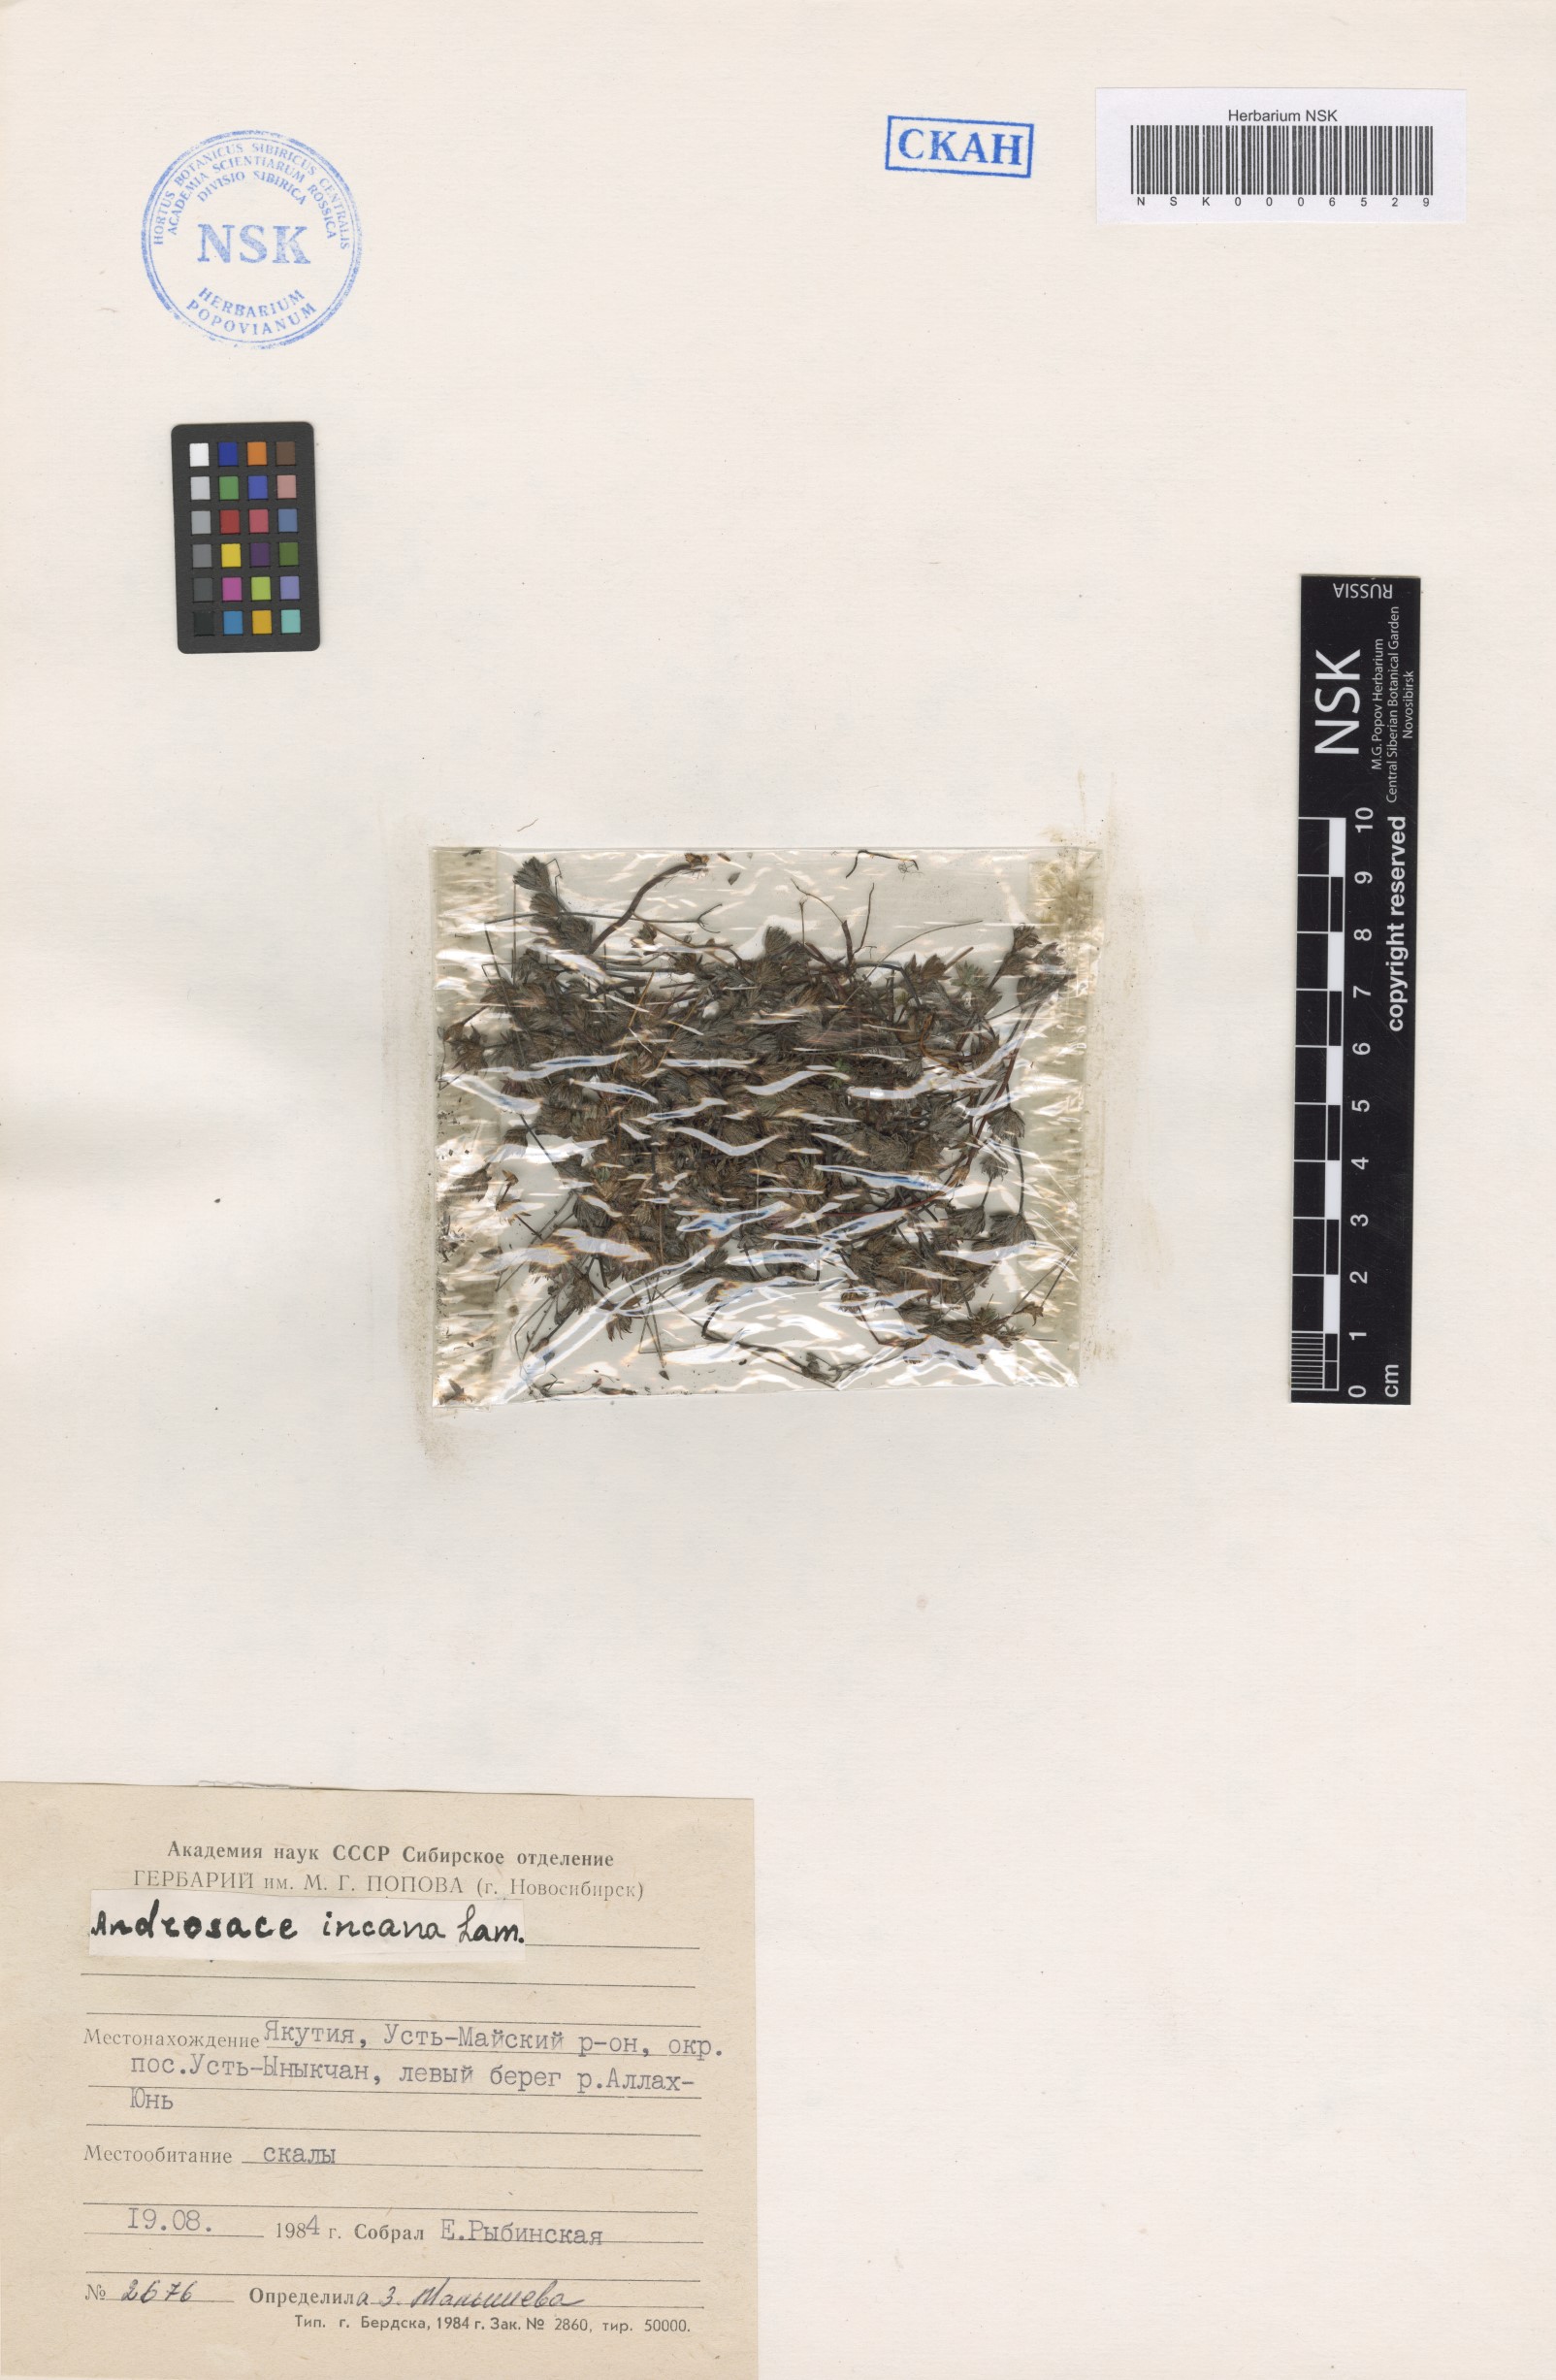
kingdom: Plantae
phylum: Tracheophyta
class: Magnoliopsida
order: Ericales
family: Primulaceae
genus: Androsace
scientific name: Androsace incana
